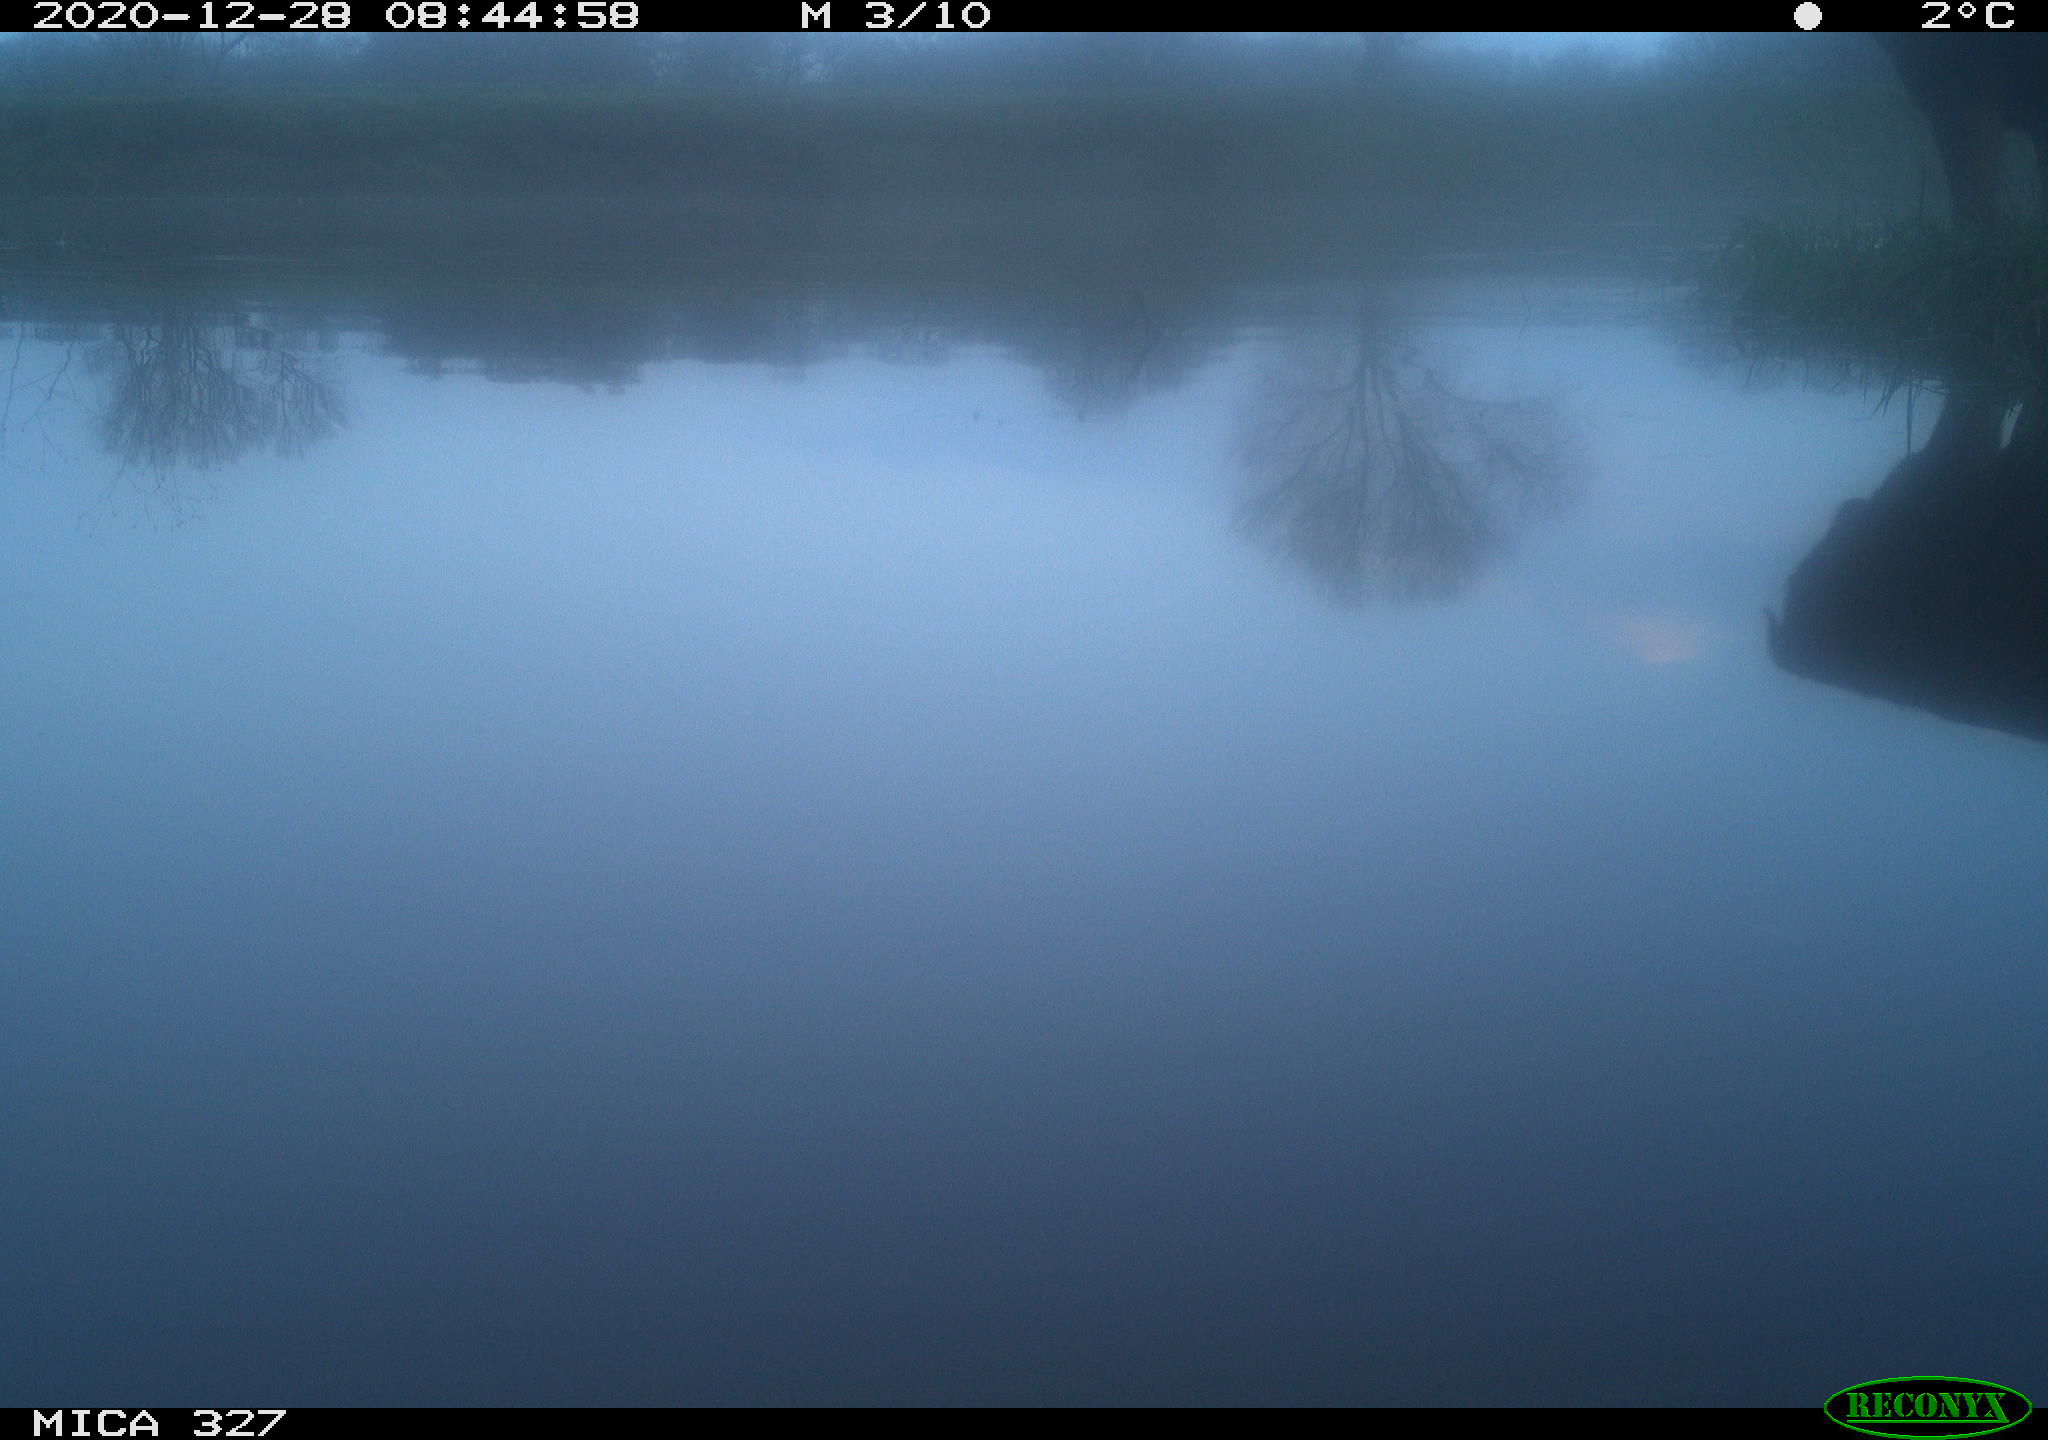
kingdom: Animalia
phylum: Chordata
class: Mammalia
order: Carnivora
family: Canidae
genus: Canis
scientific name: Canis lupus
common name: Gray wolf
